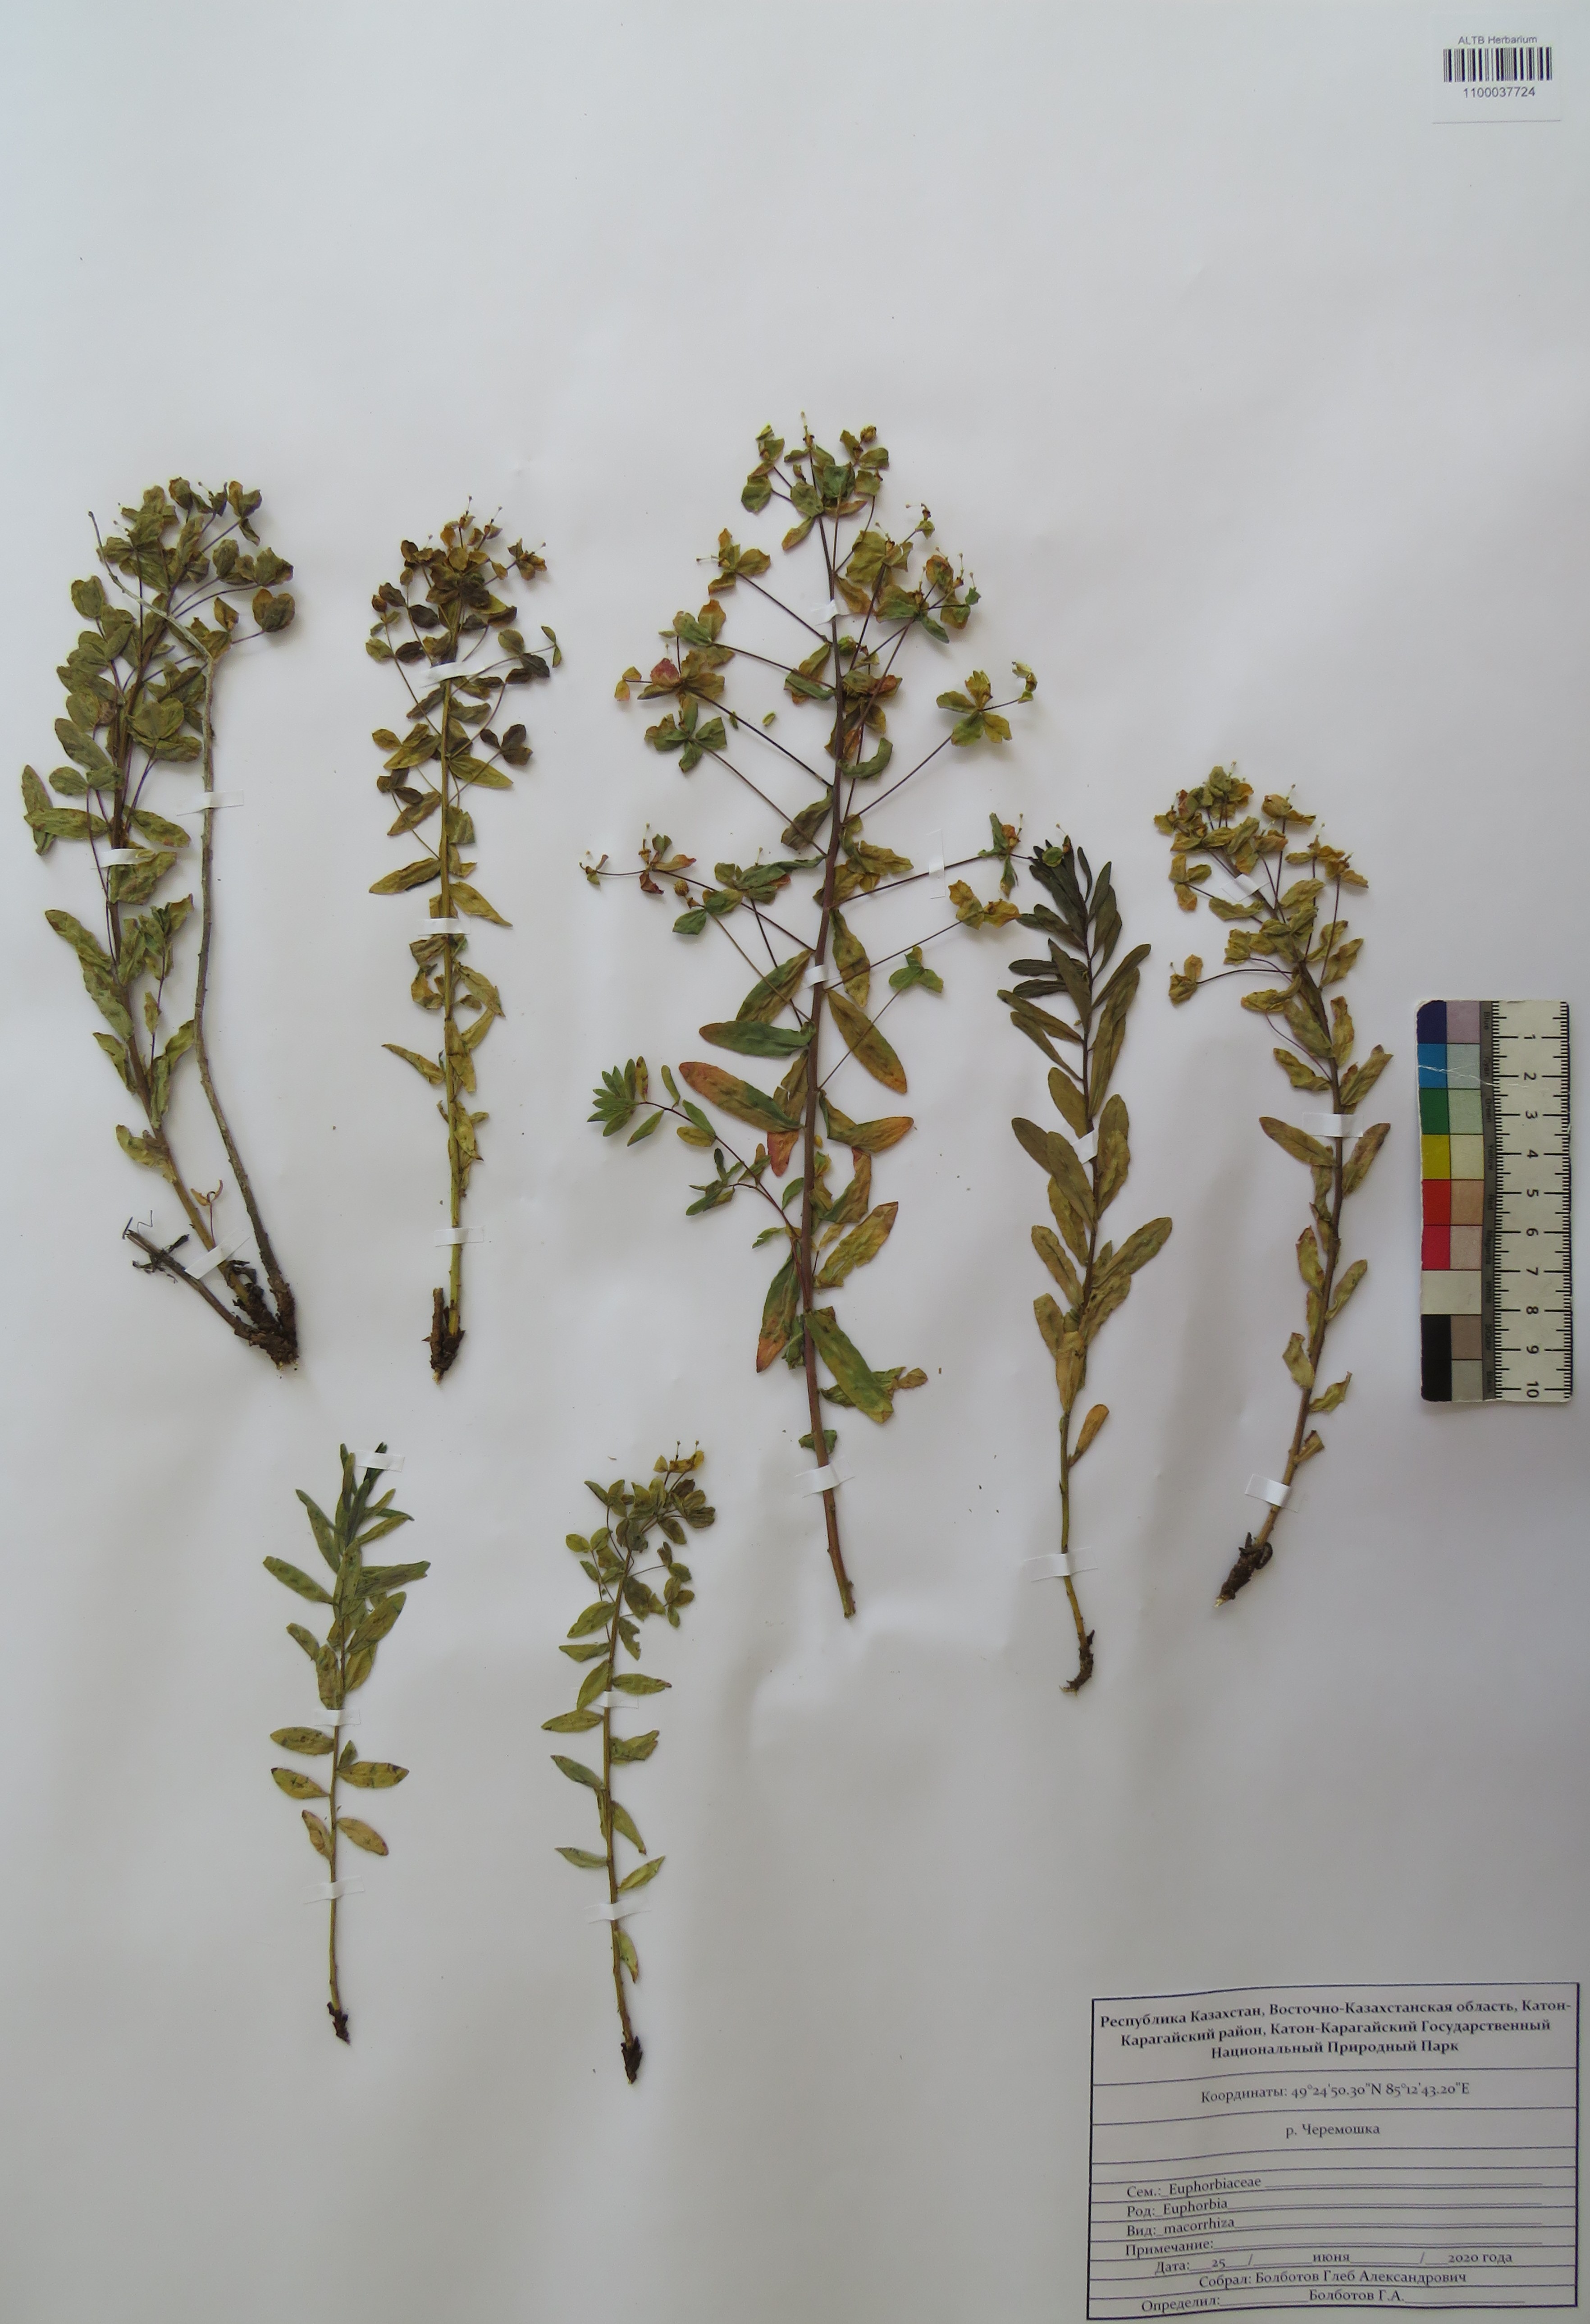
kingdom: Plantae
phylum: Tracheophyta
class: Magnoliopsida
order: Malpighiales
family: Euphorbiaceae
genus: Euphorbia
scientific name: Euphorbia macrorhiza
